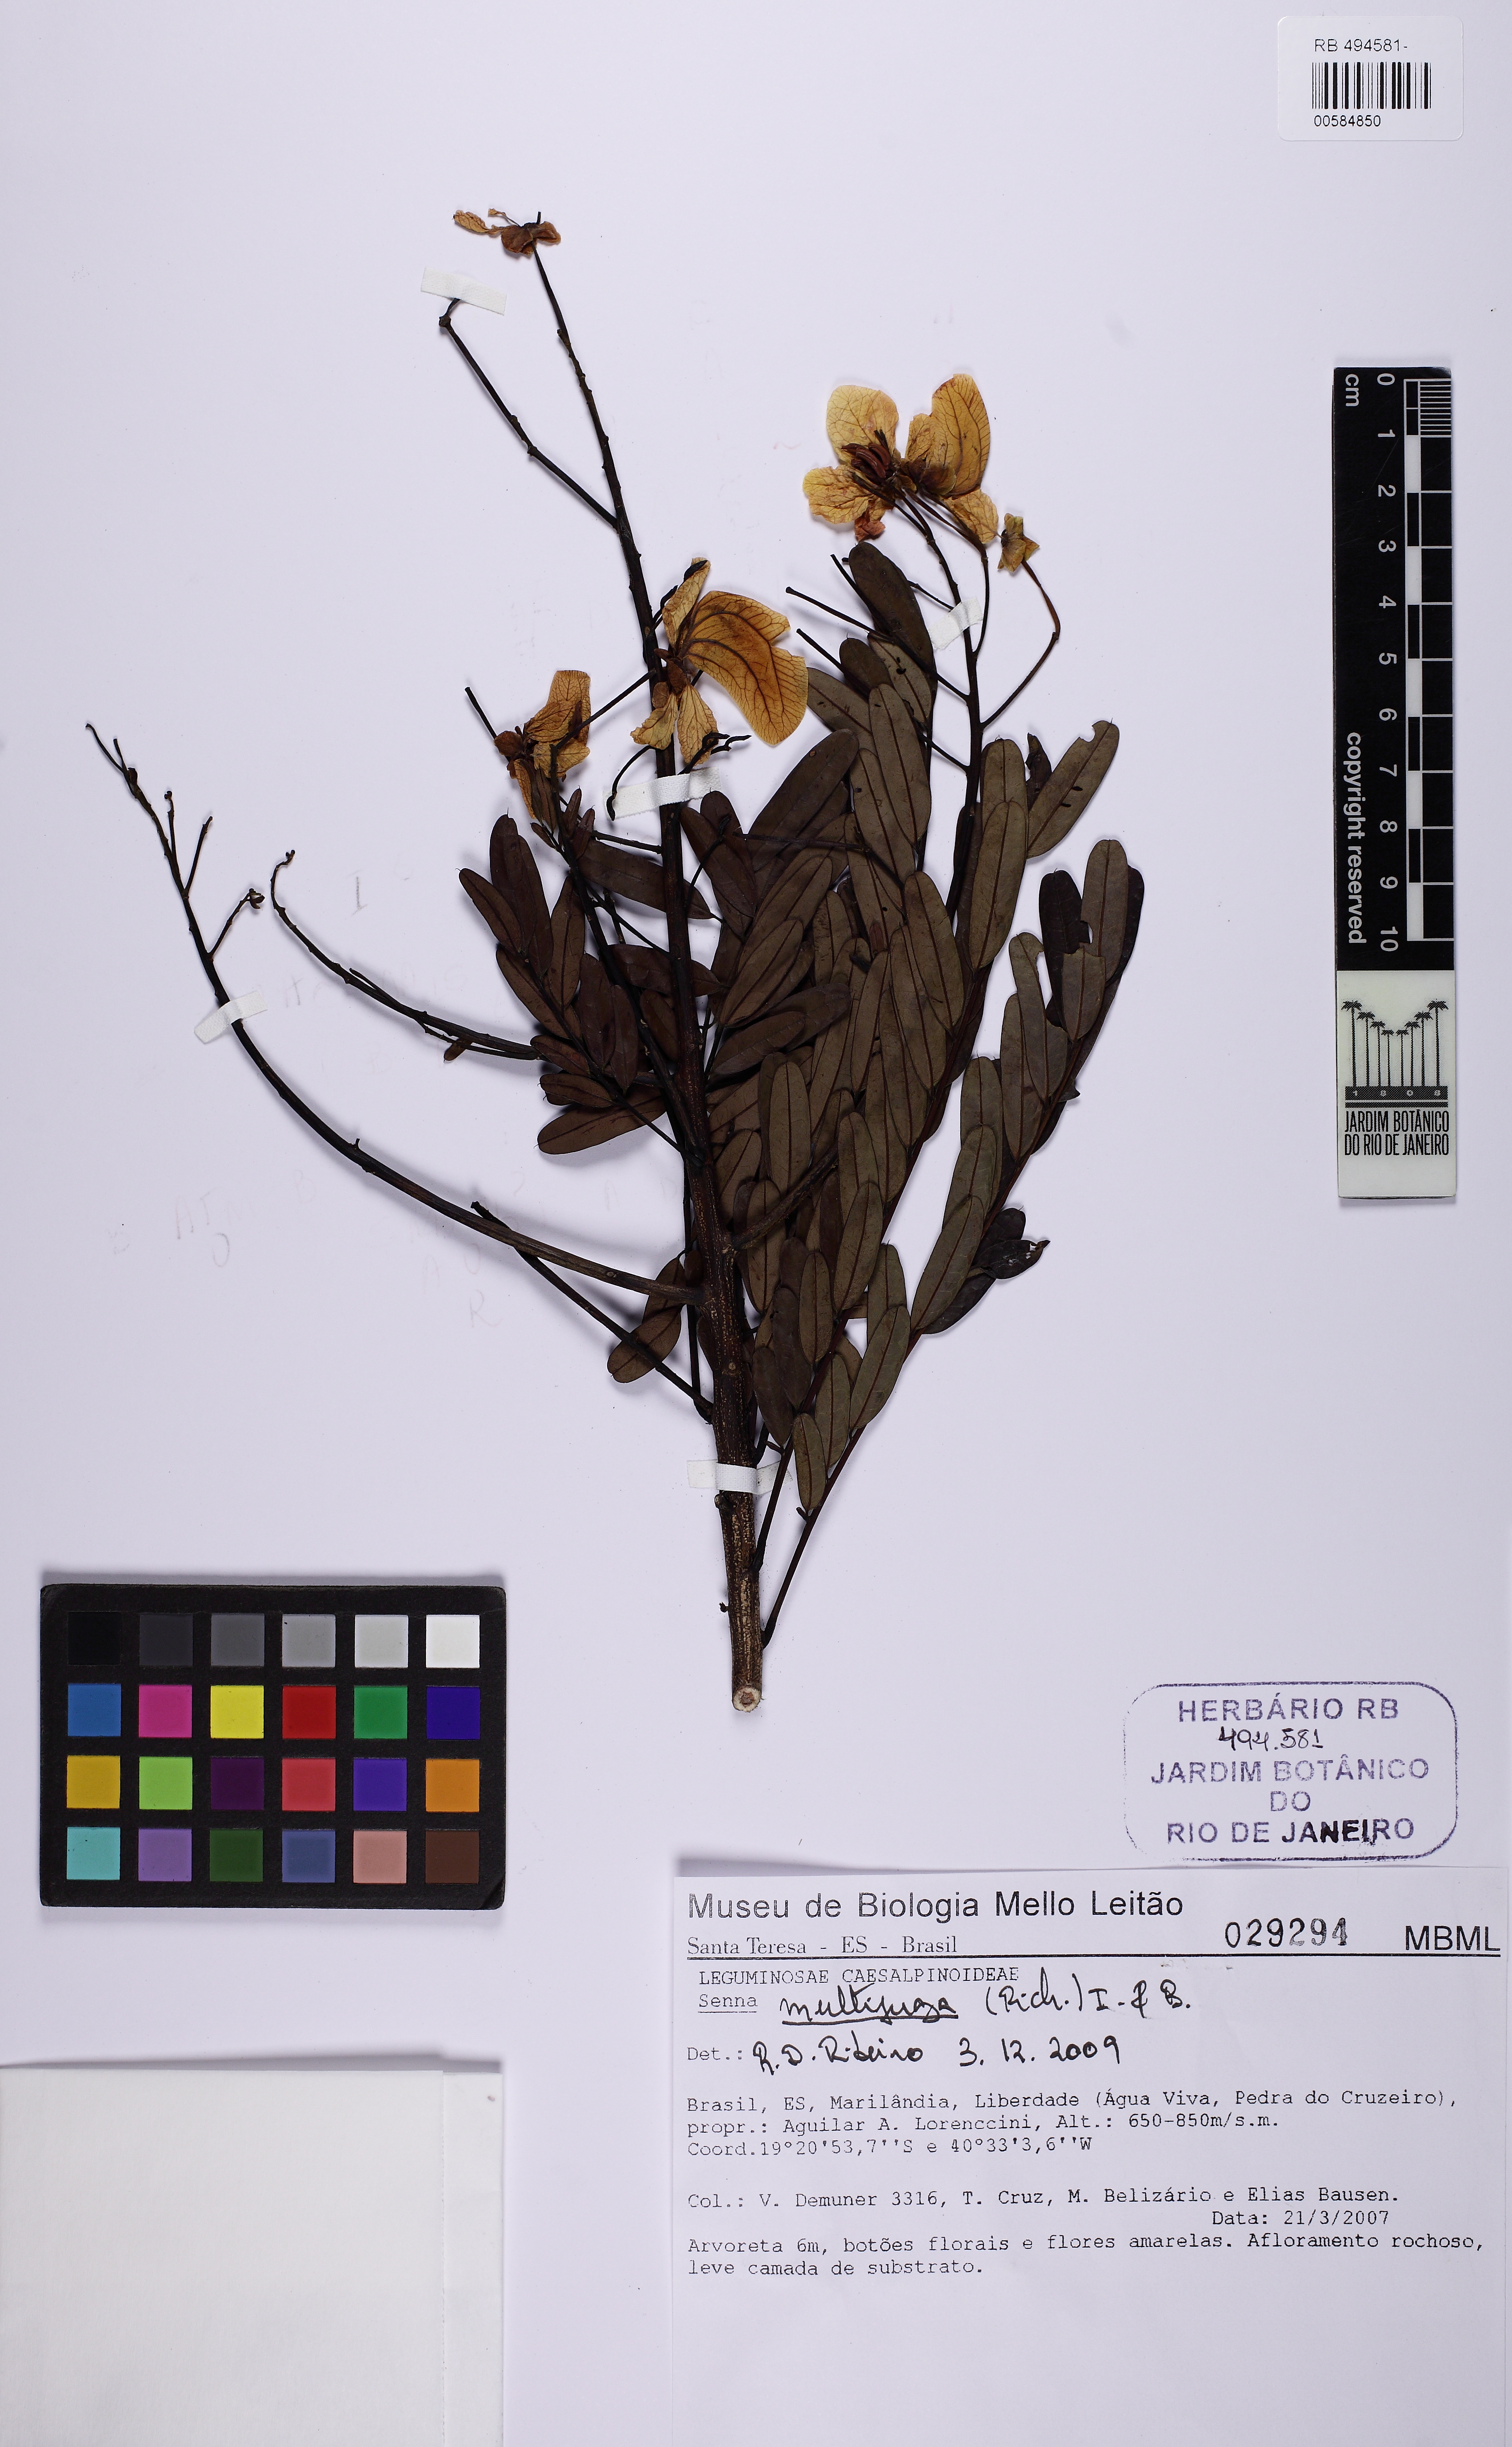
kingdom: Plantae
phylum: Tracheophyta
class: Magnoliopsida
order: Fabales
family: Fabaceae
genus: Senna
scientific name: Senna multijuga
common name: False sicklepod
